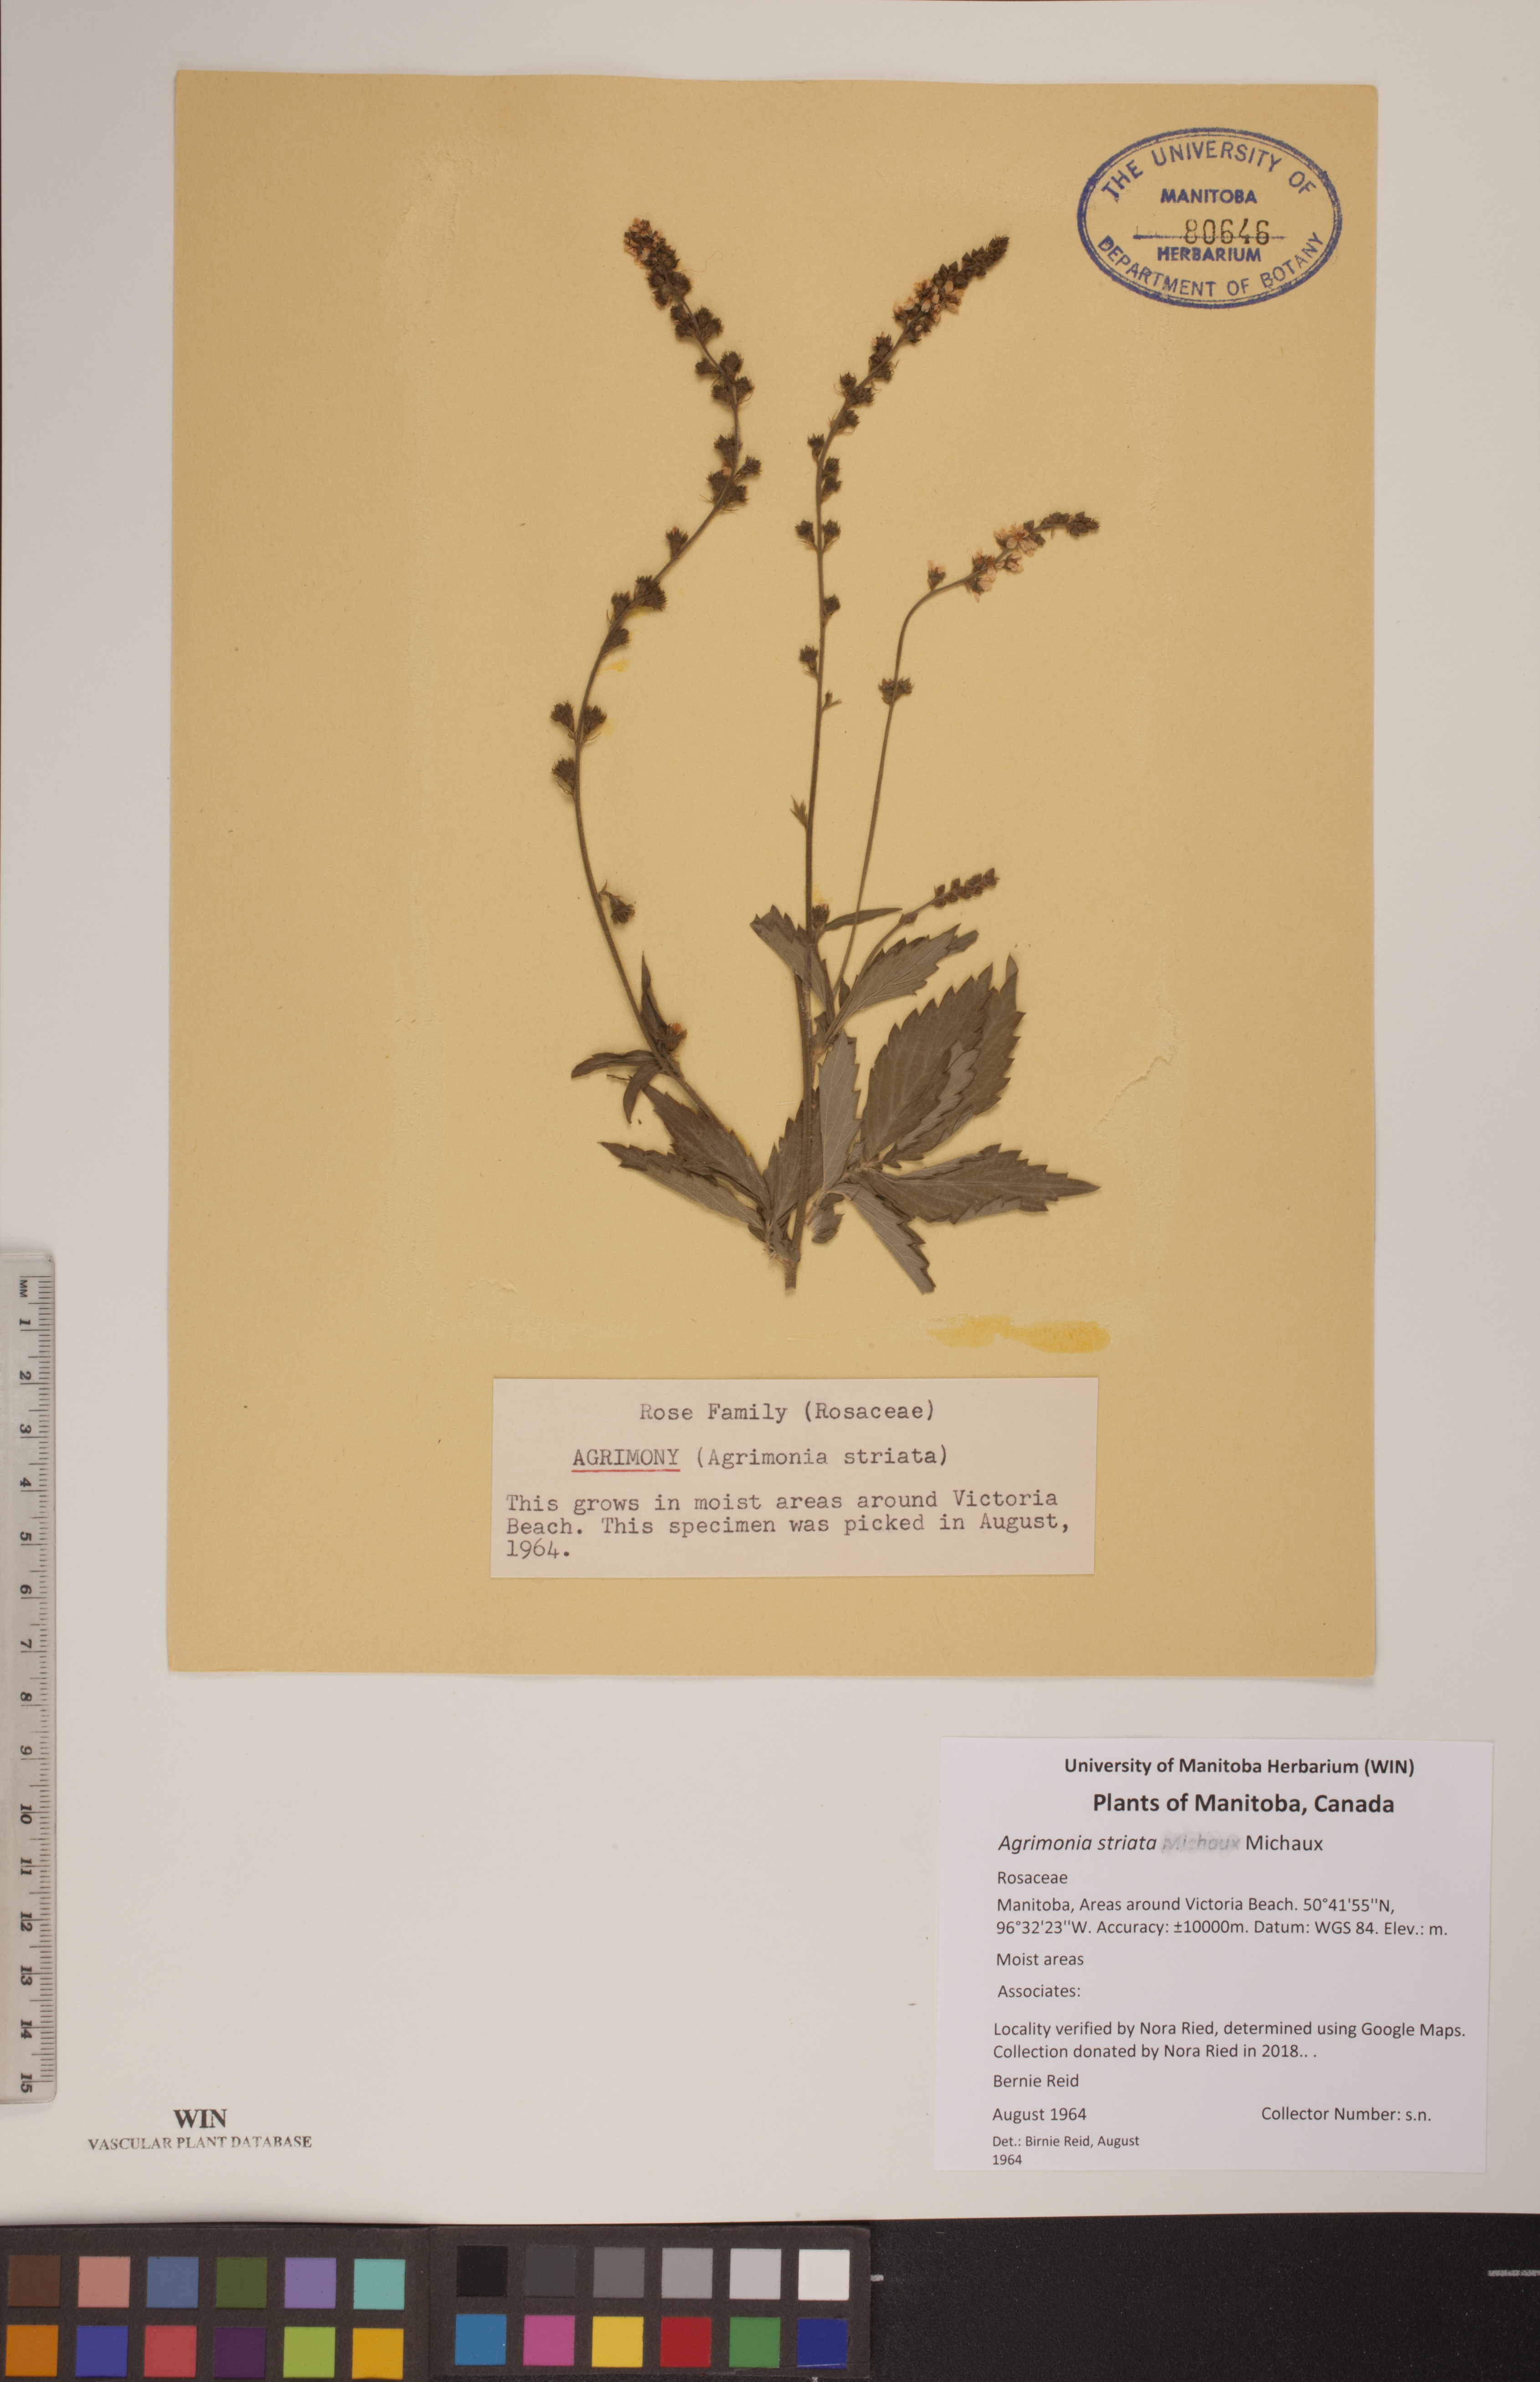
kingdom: Plantae
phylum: Tracheophyta
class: Magnoliopsida
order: Rosales
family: Rosaceae
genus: Agrimonia
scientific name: Agrimonia striata
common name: Britton's agrimony
